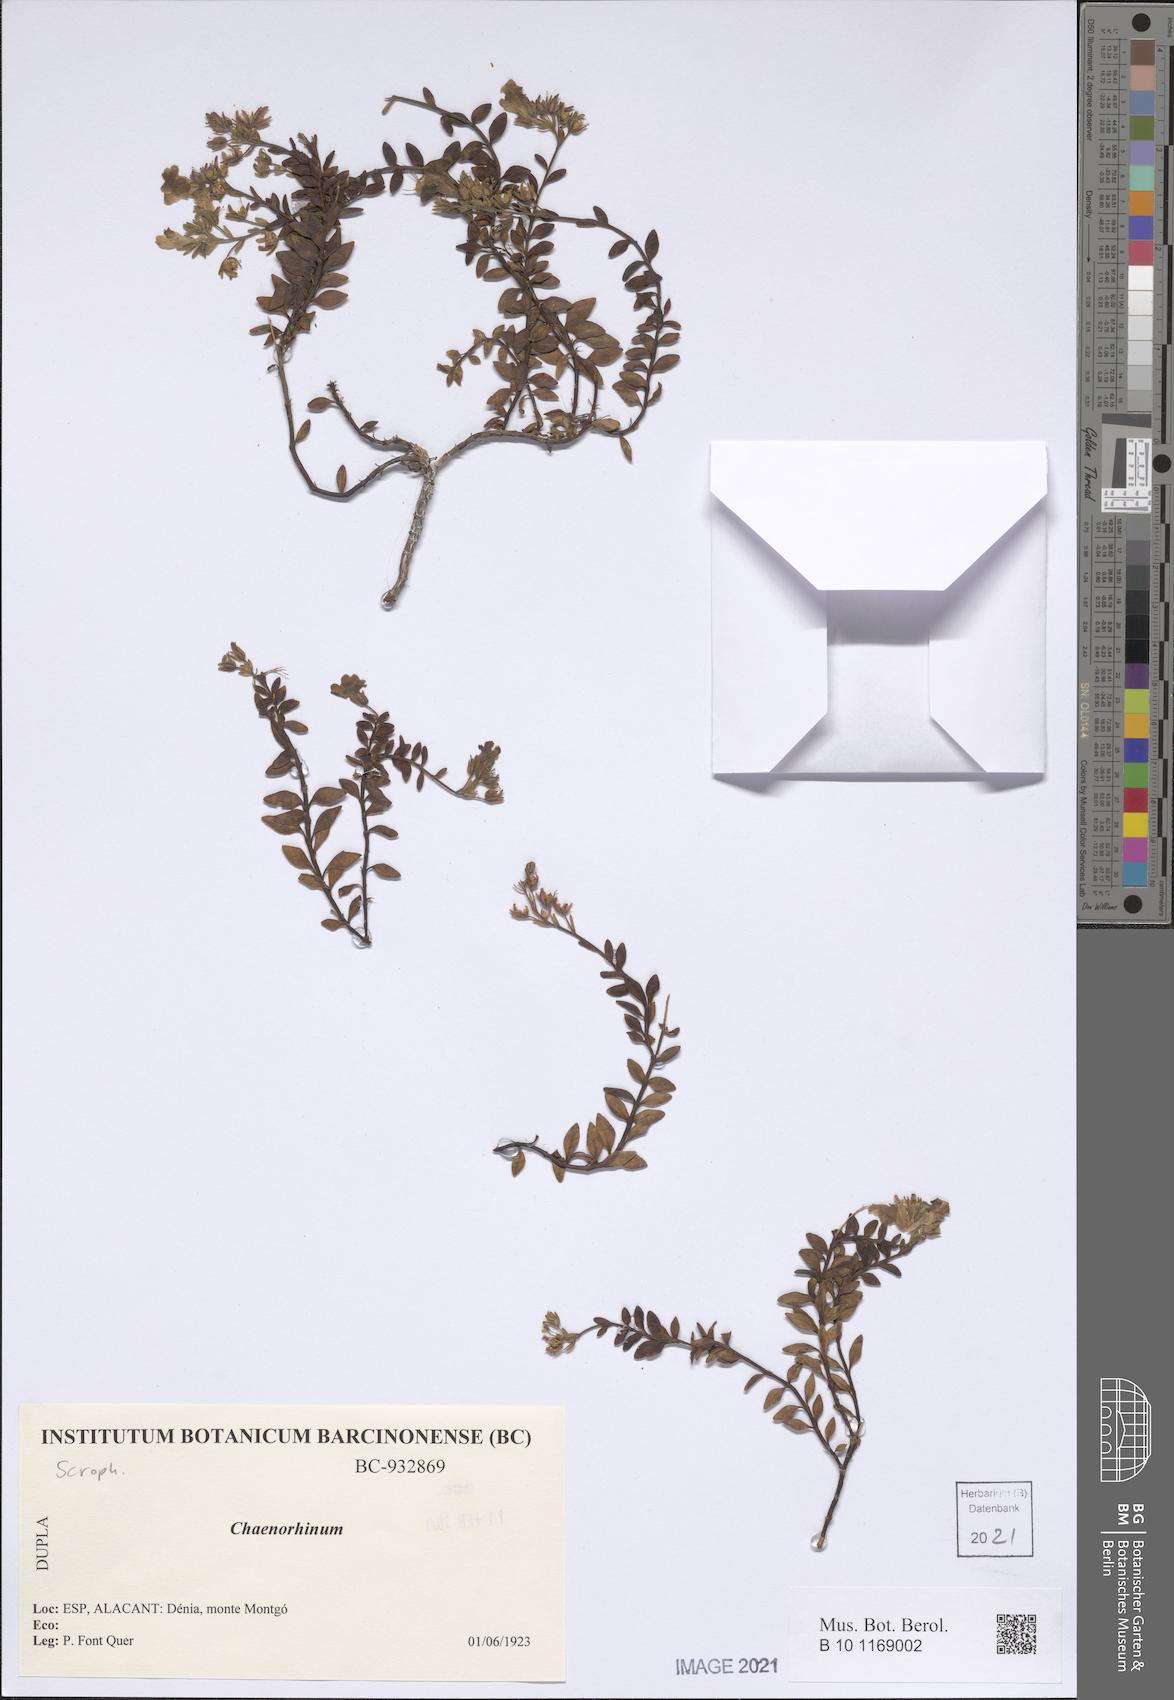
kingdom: Plantae
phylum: Tracheophyta
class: Magnoliopsida
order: Lamiales
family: Plantaginaceae
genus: Chaenorhinum
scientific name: Chaenorhinum
